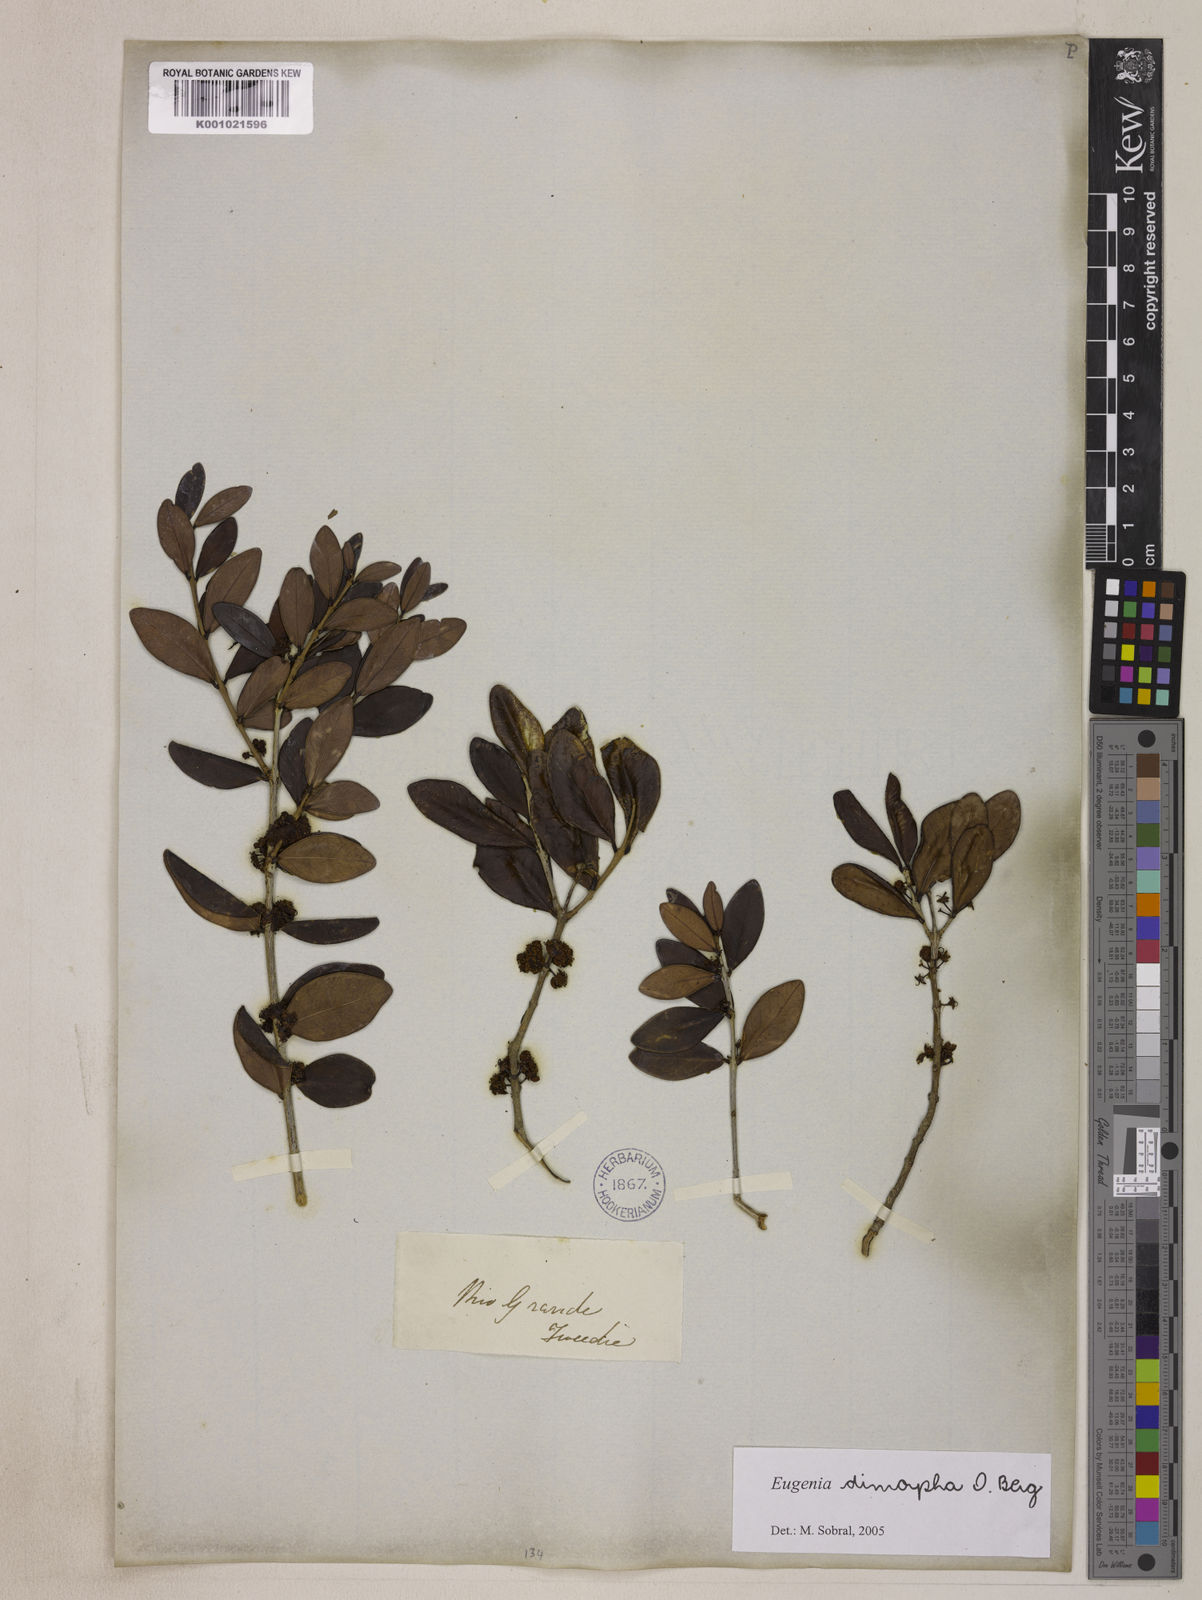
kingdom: Plantae
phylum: Tracheophyta
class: Magnoliopsida
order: Myrtales
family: Myrtaceae
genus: Eugenia
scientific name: Eugenia dimorpha
